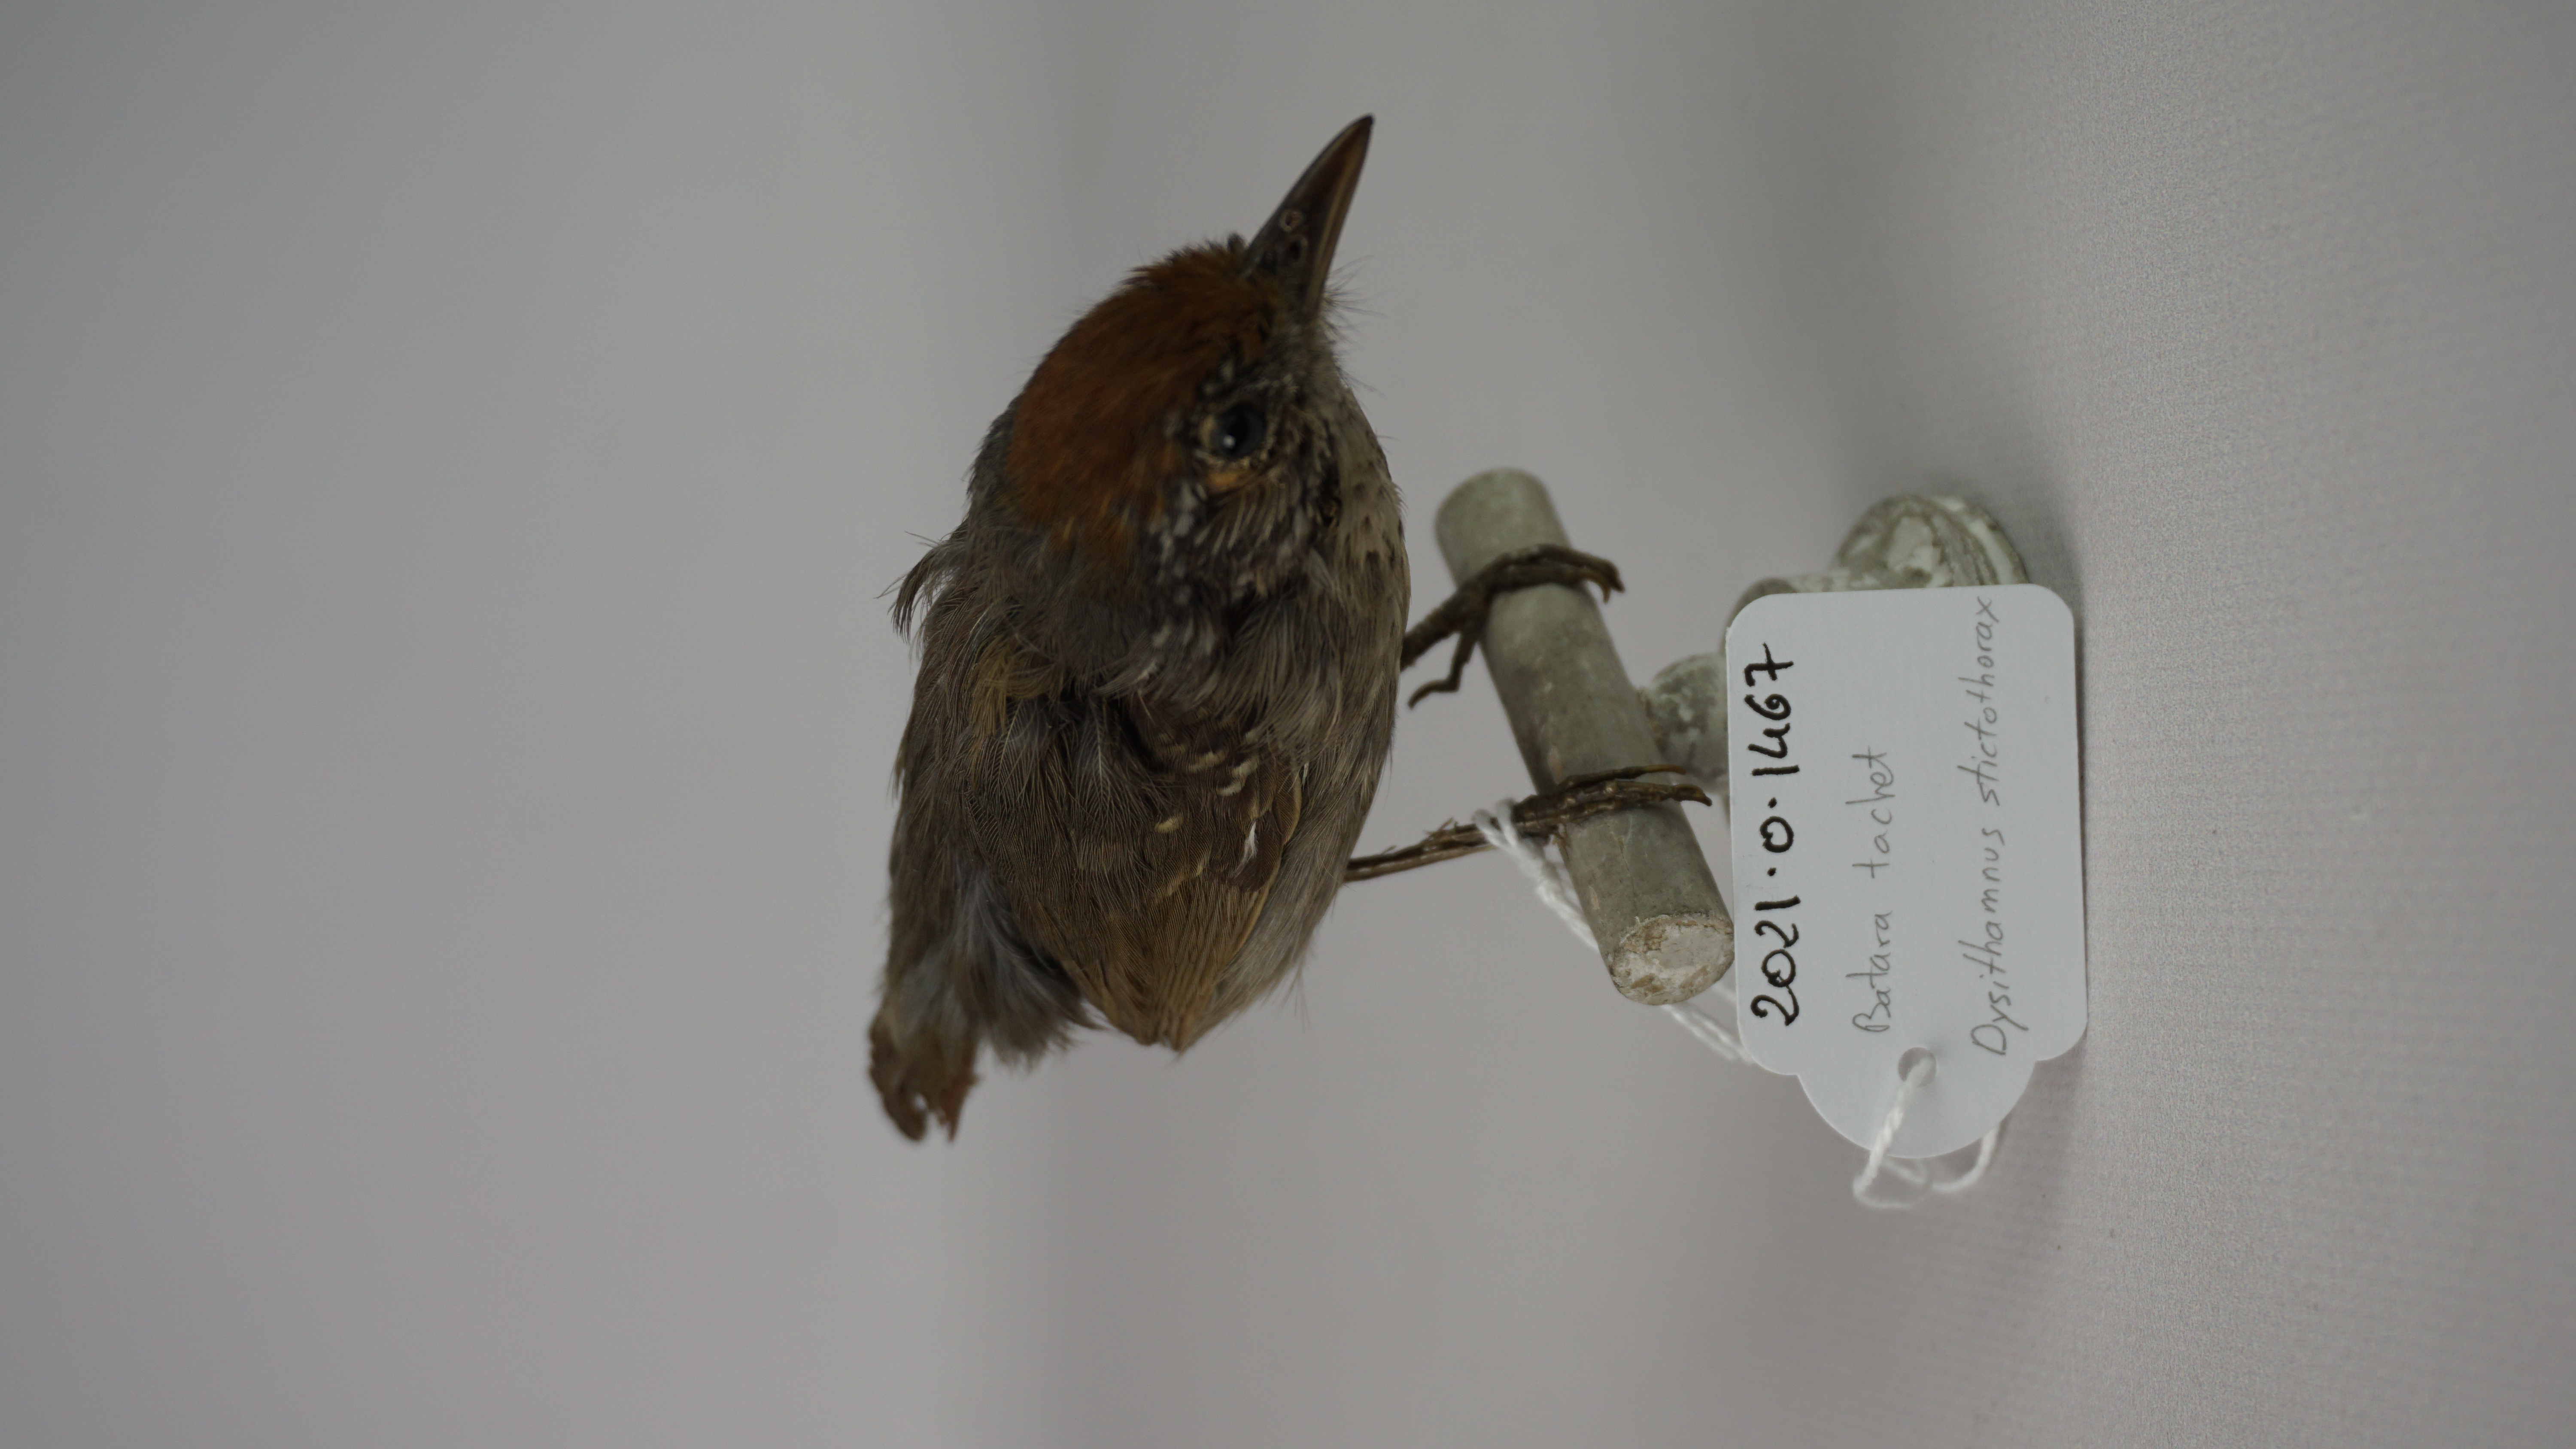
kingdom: Animalia
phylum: Chordata
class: Aves
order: Passeriformes
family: Thamnophilidae
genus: Dysithamnus
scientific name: Dysithamnus stictothorax
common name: Spot-breasted antvireo
